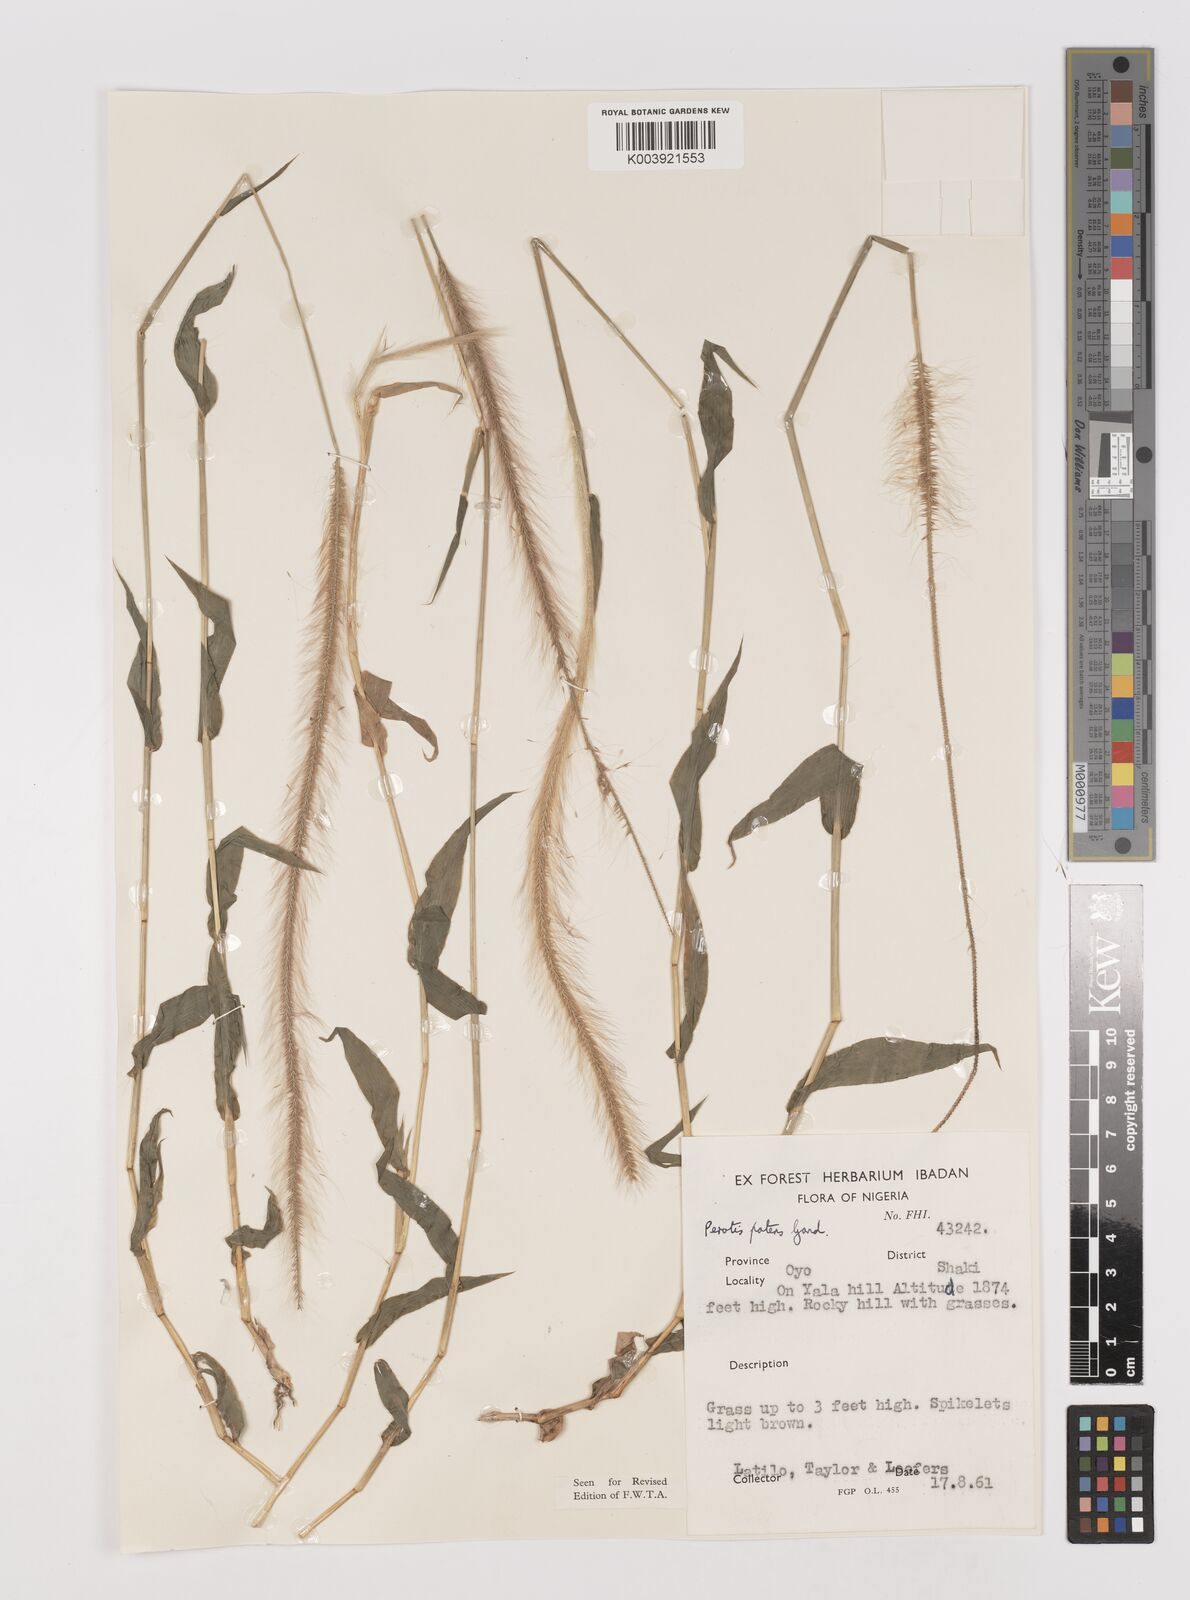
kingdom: Plantae
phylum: Tracheophyta
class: Liliopsida
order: Poales
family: Poaceae
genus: Perotis
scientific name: Perotis patens
